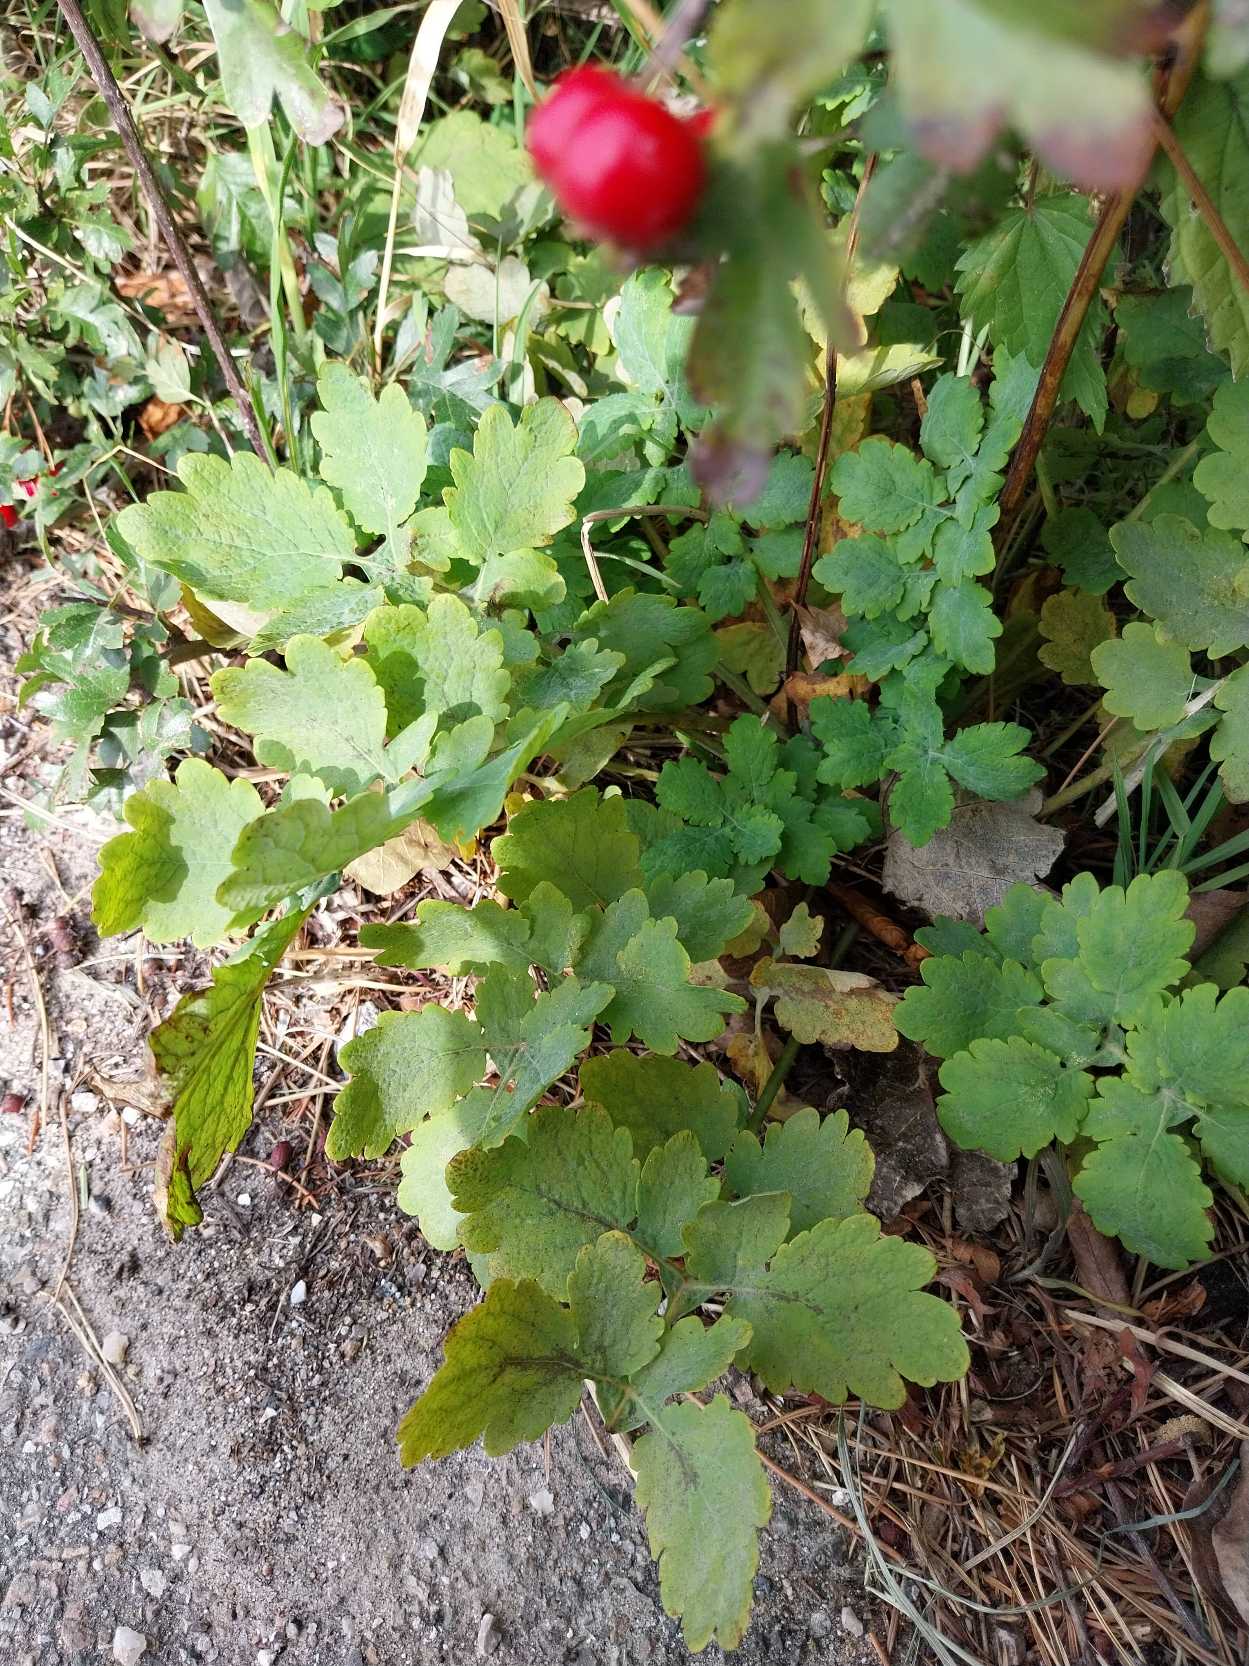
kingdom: Plantae
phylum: Tracheophyta
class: Magnoliopsida
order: Ranunculales
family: Papaveraceae
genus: Chelidonium
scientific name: Chelidonium majus
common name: Svaleurt
